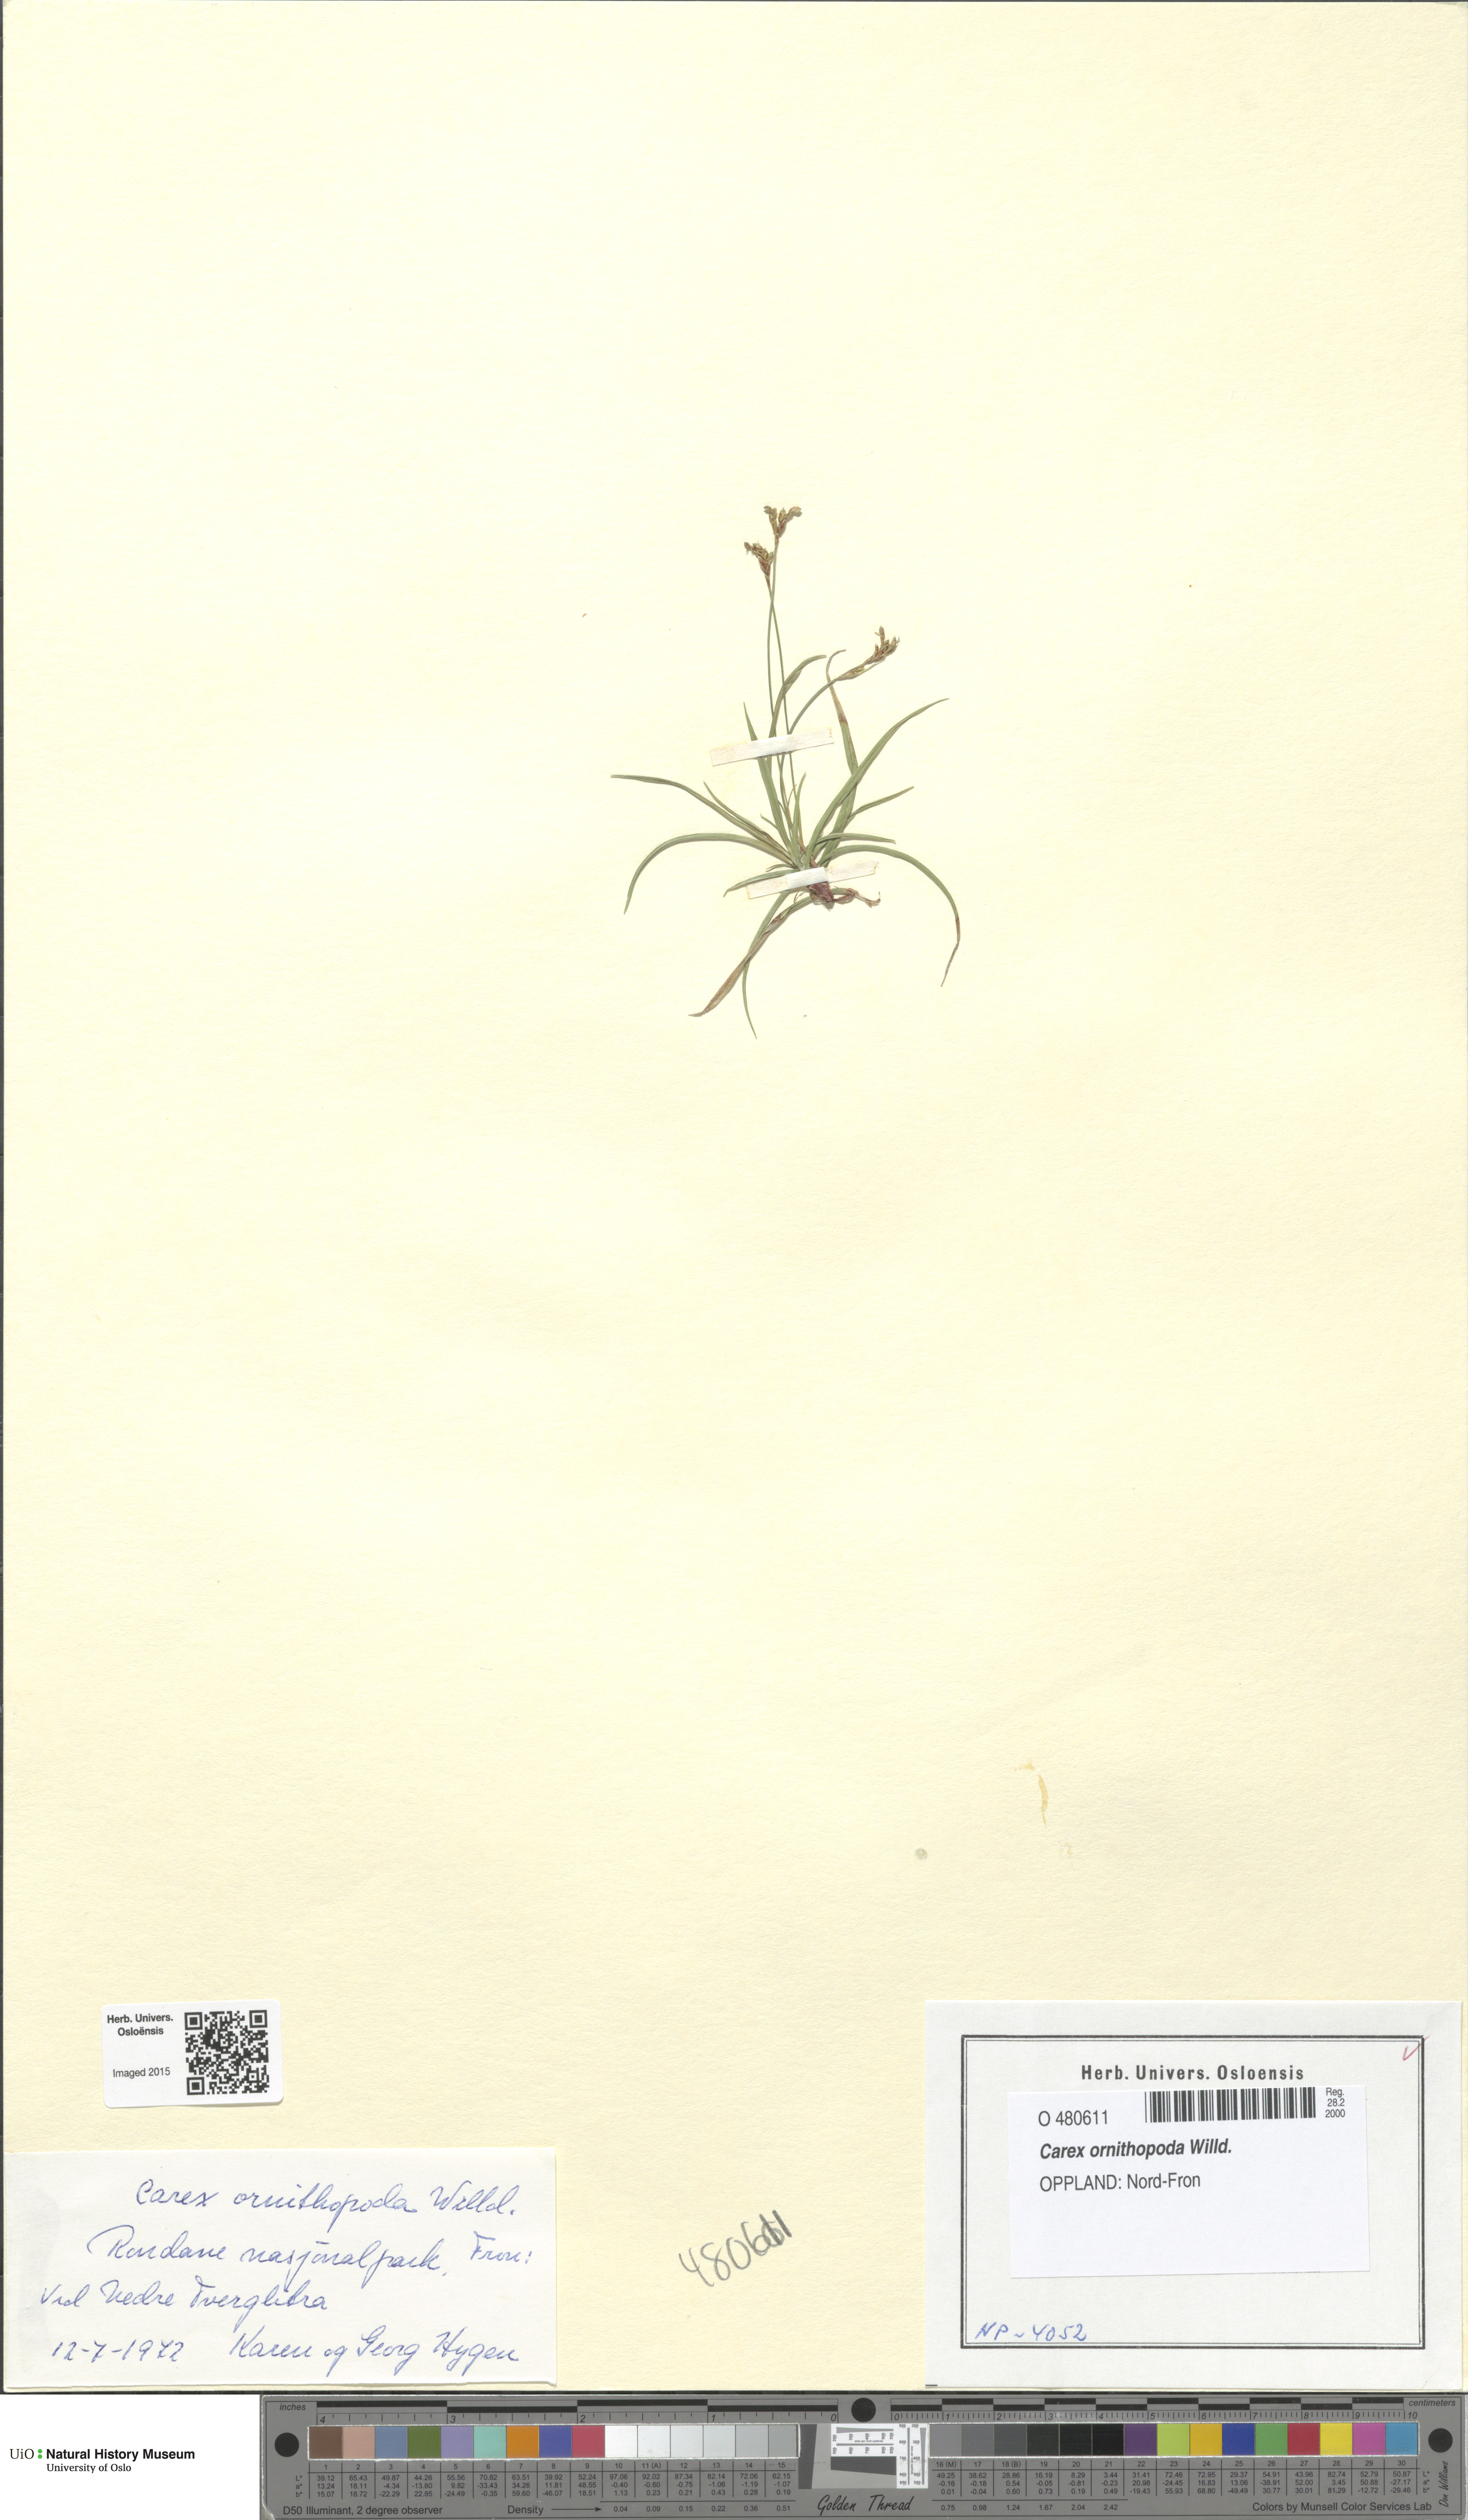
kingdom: Plantae
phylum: Tracheophyta
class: Liliopsida
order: Poales
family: Cyperaceae
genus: Carex
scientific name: Carex ornithopoda
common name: Bird's-foot sedge
